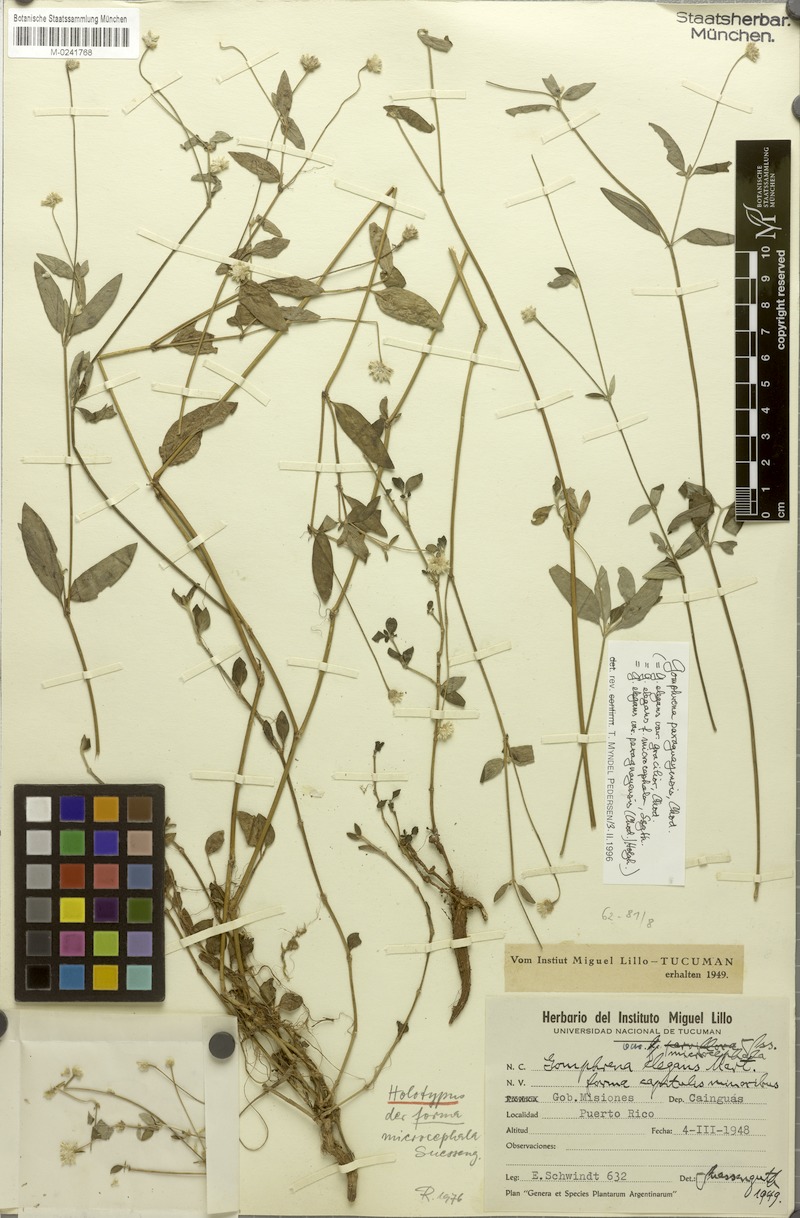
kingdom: Plantae
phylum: Tracheophyta
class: Magnoliopsida
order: Caryophyllales
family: Amaranthaceae
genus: Gomphrena
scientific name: Gomphrena paraguayensis
